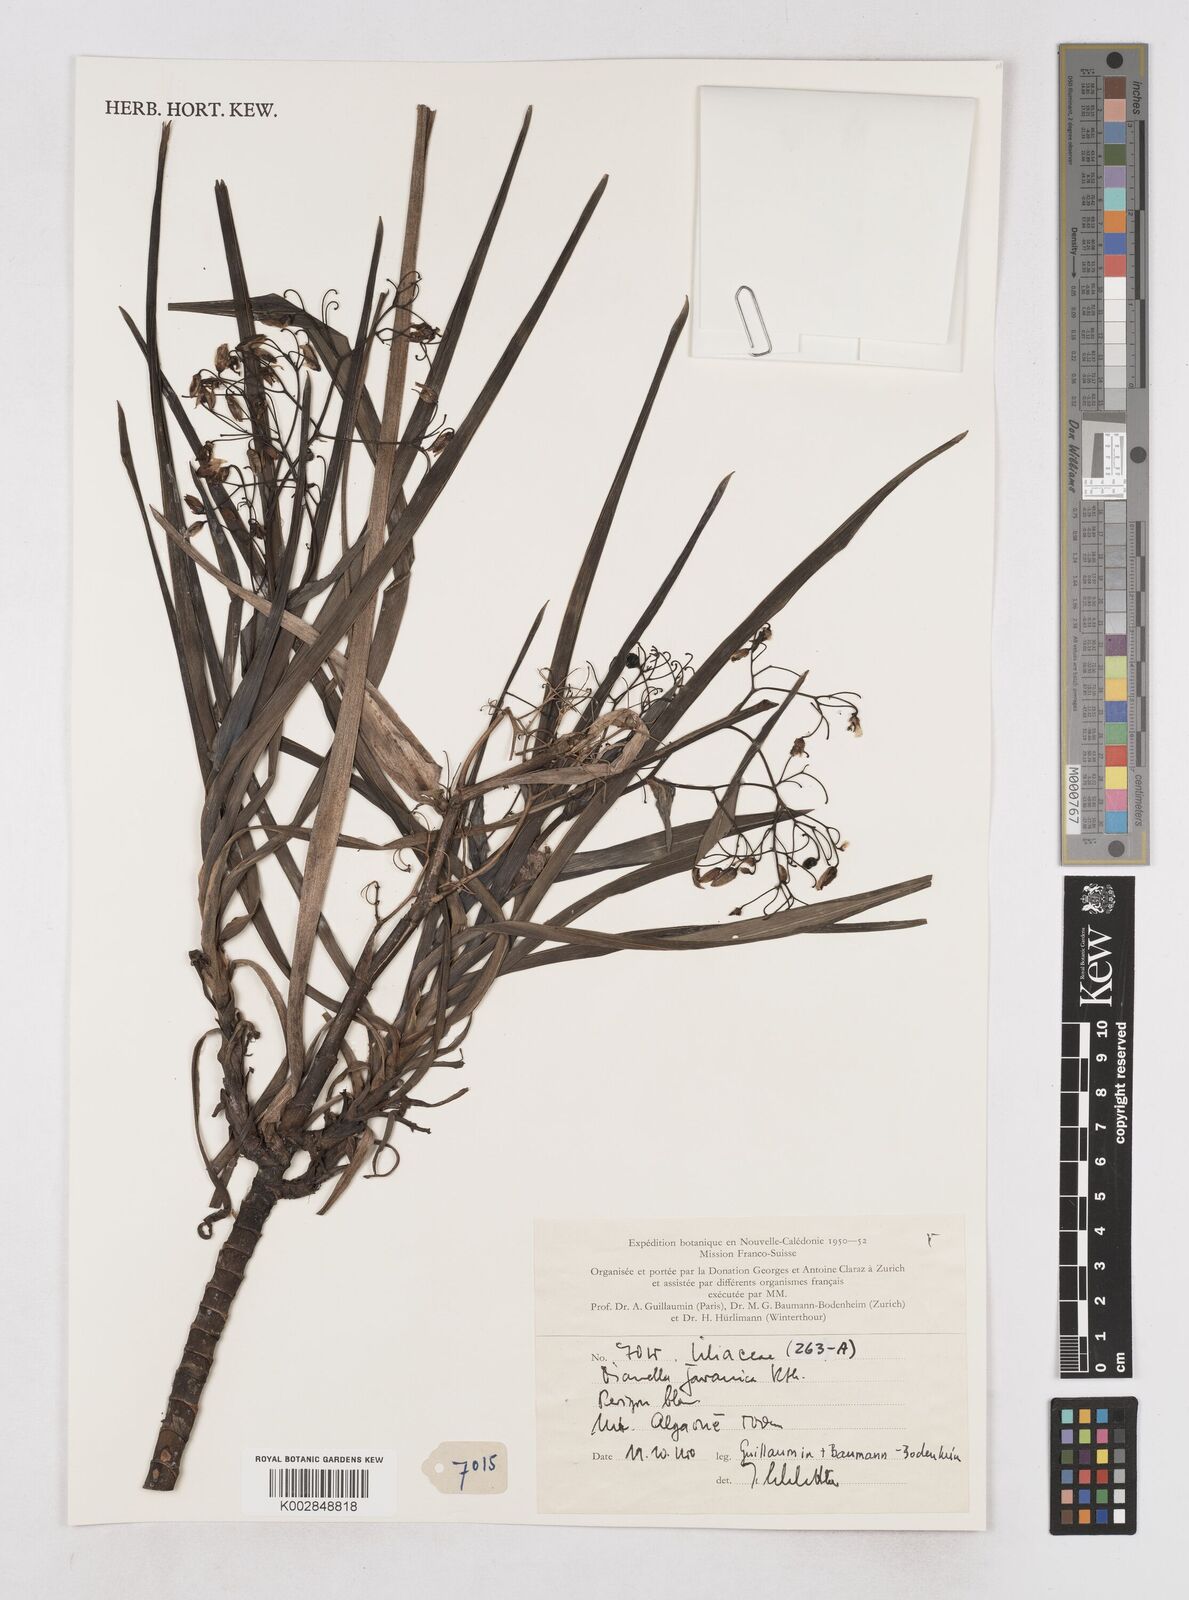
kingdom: Plantae
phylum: Tracheophyta
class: Liliopsida
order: Asparagales
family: Asphodelaceae
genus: Rhuacophila
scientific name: Rhuacophila javanica
